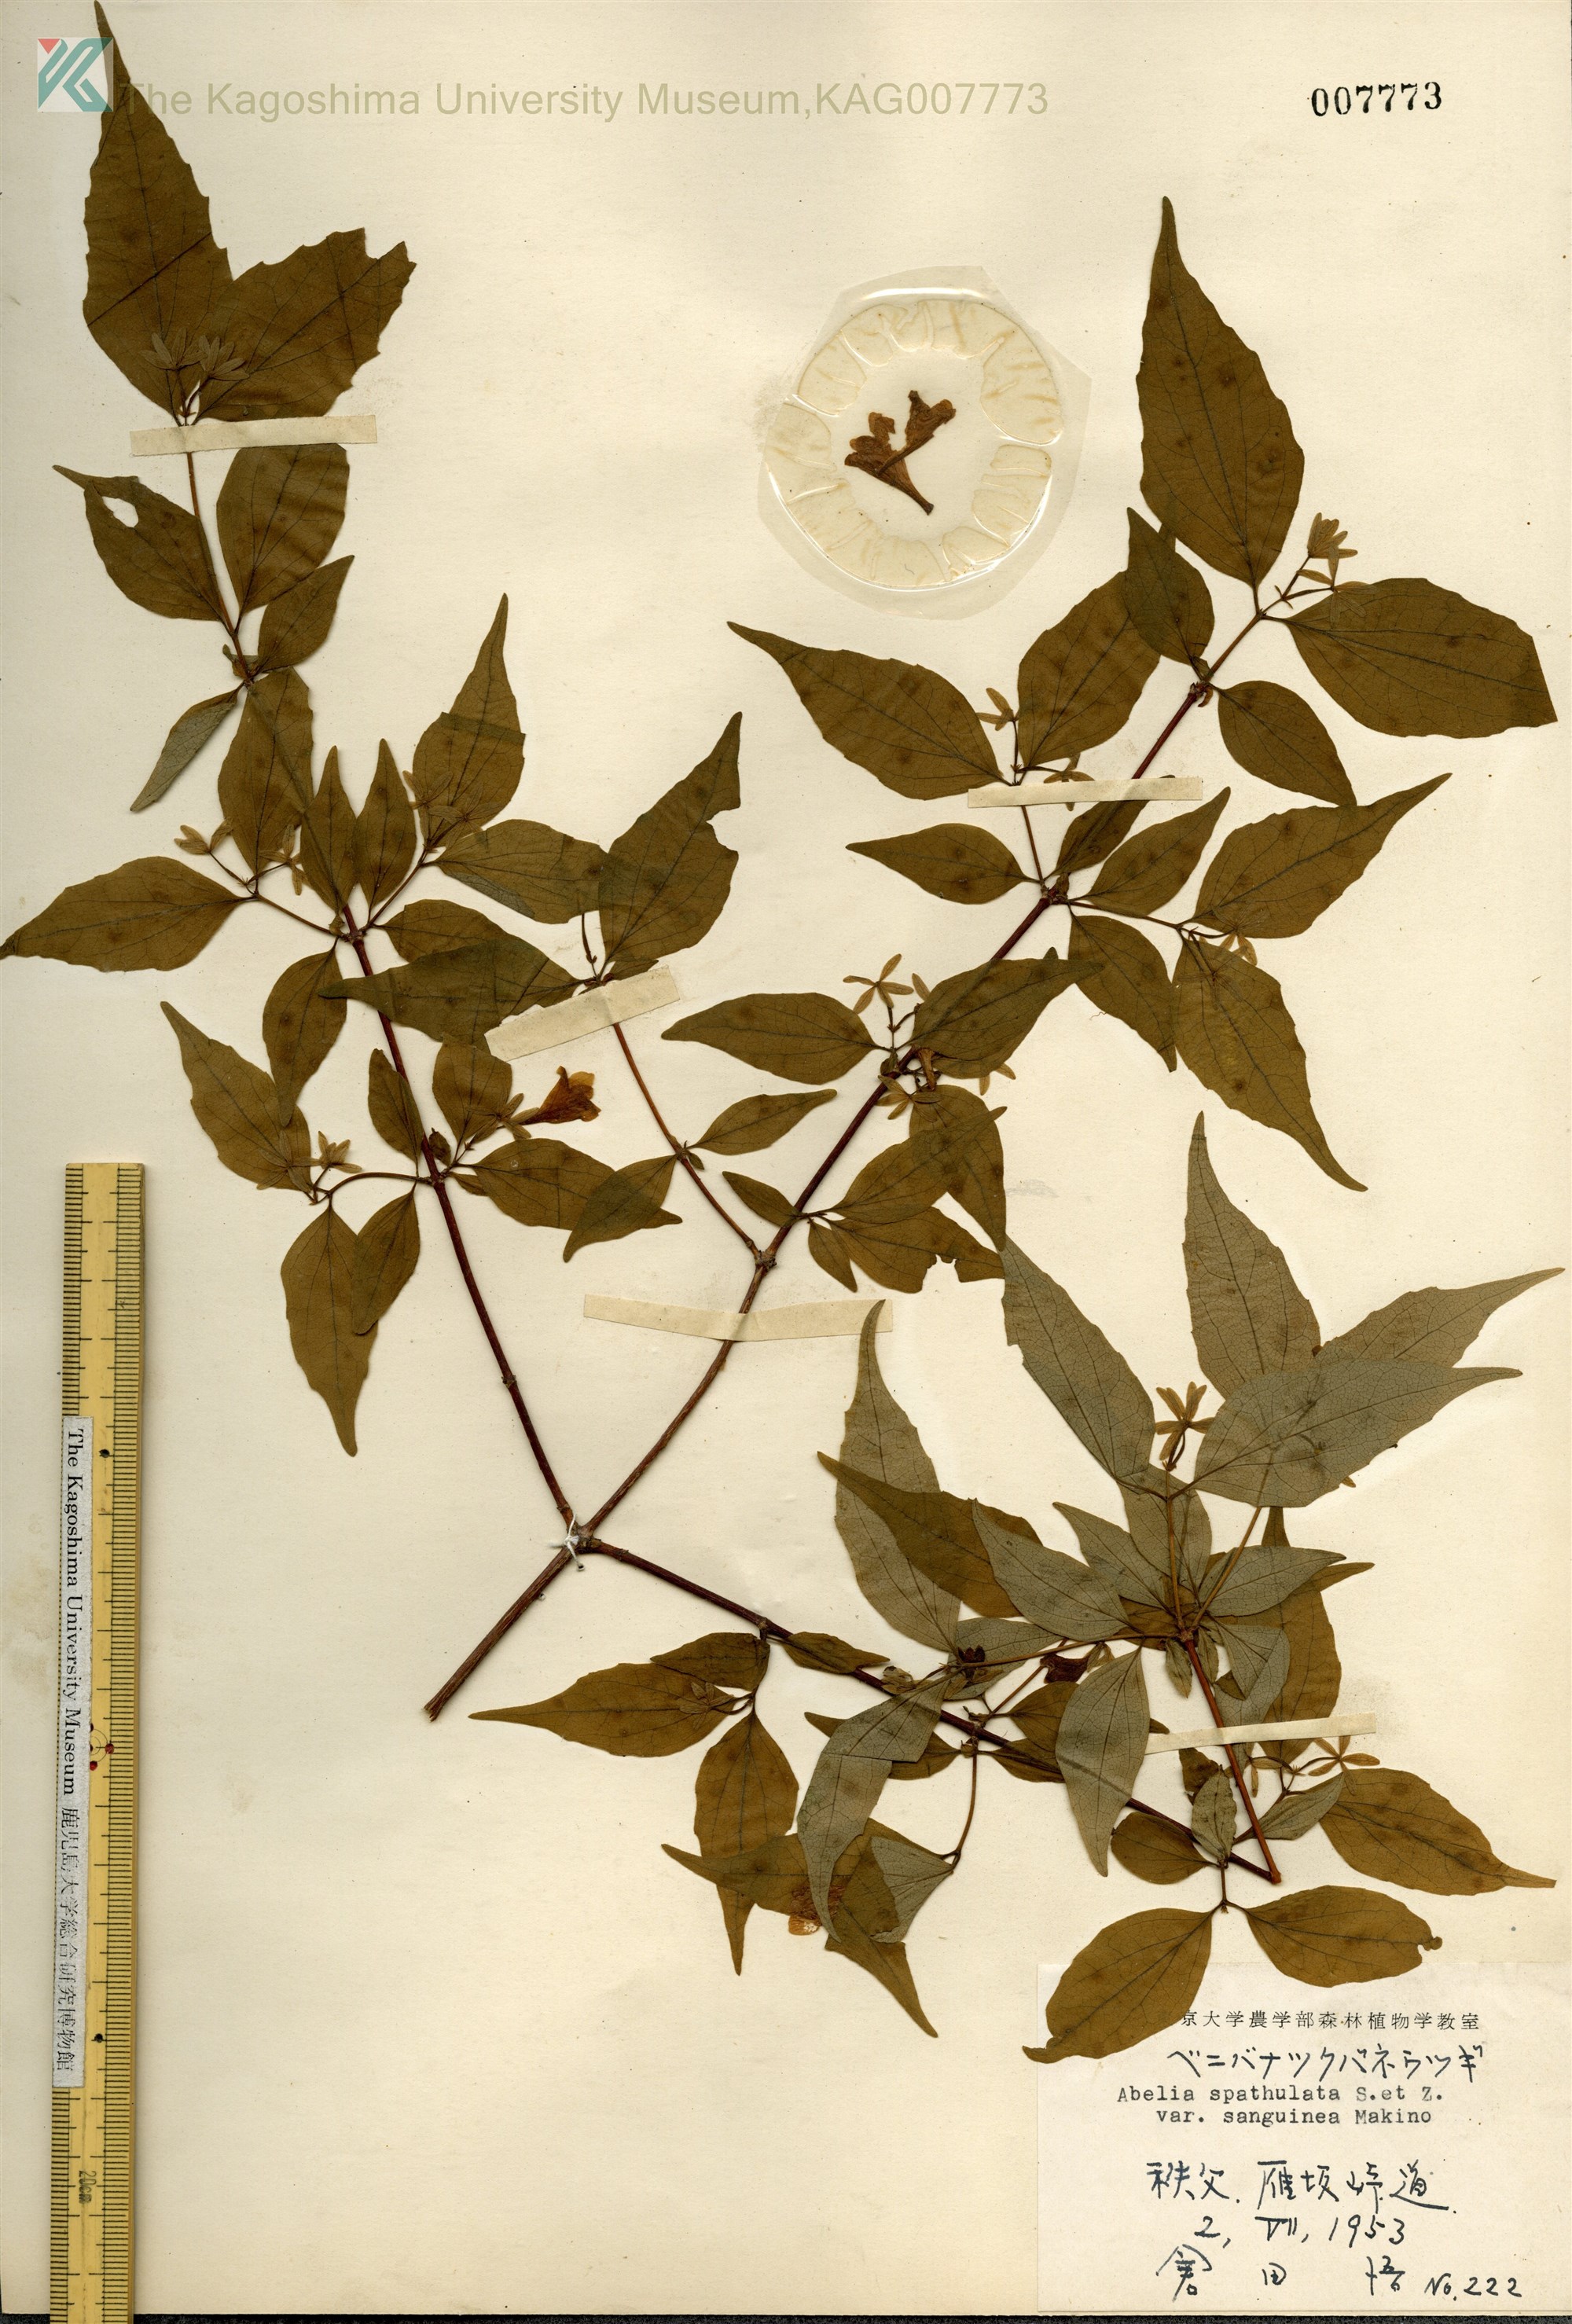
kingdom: Plantae
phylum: Tracheophyta
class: Magnoliopsida
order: Dipsacales
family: Caprifoliaceae
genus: Diabelia
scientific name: Diabelia spathulata
